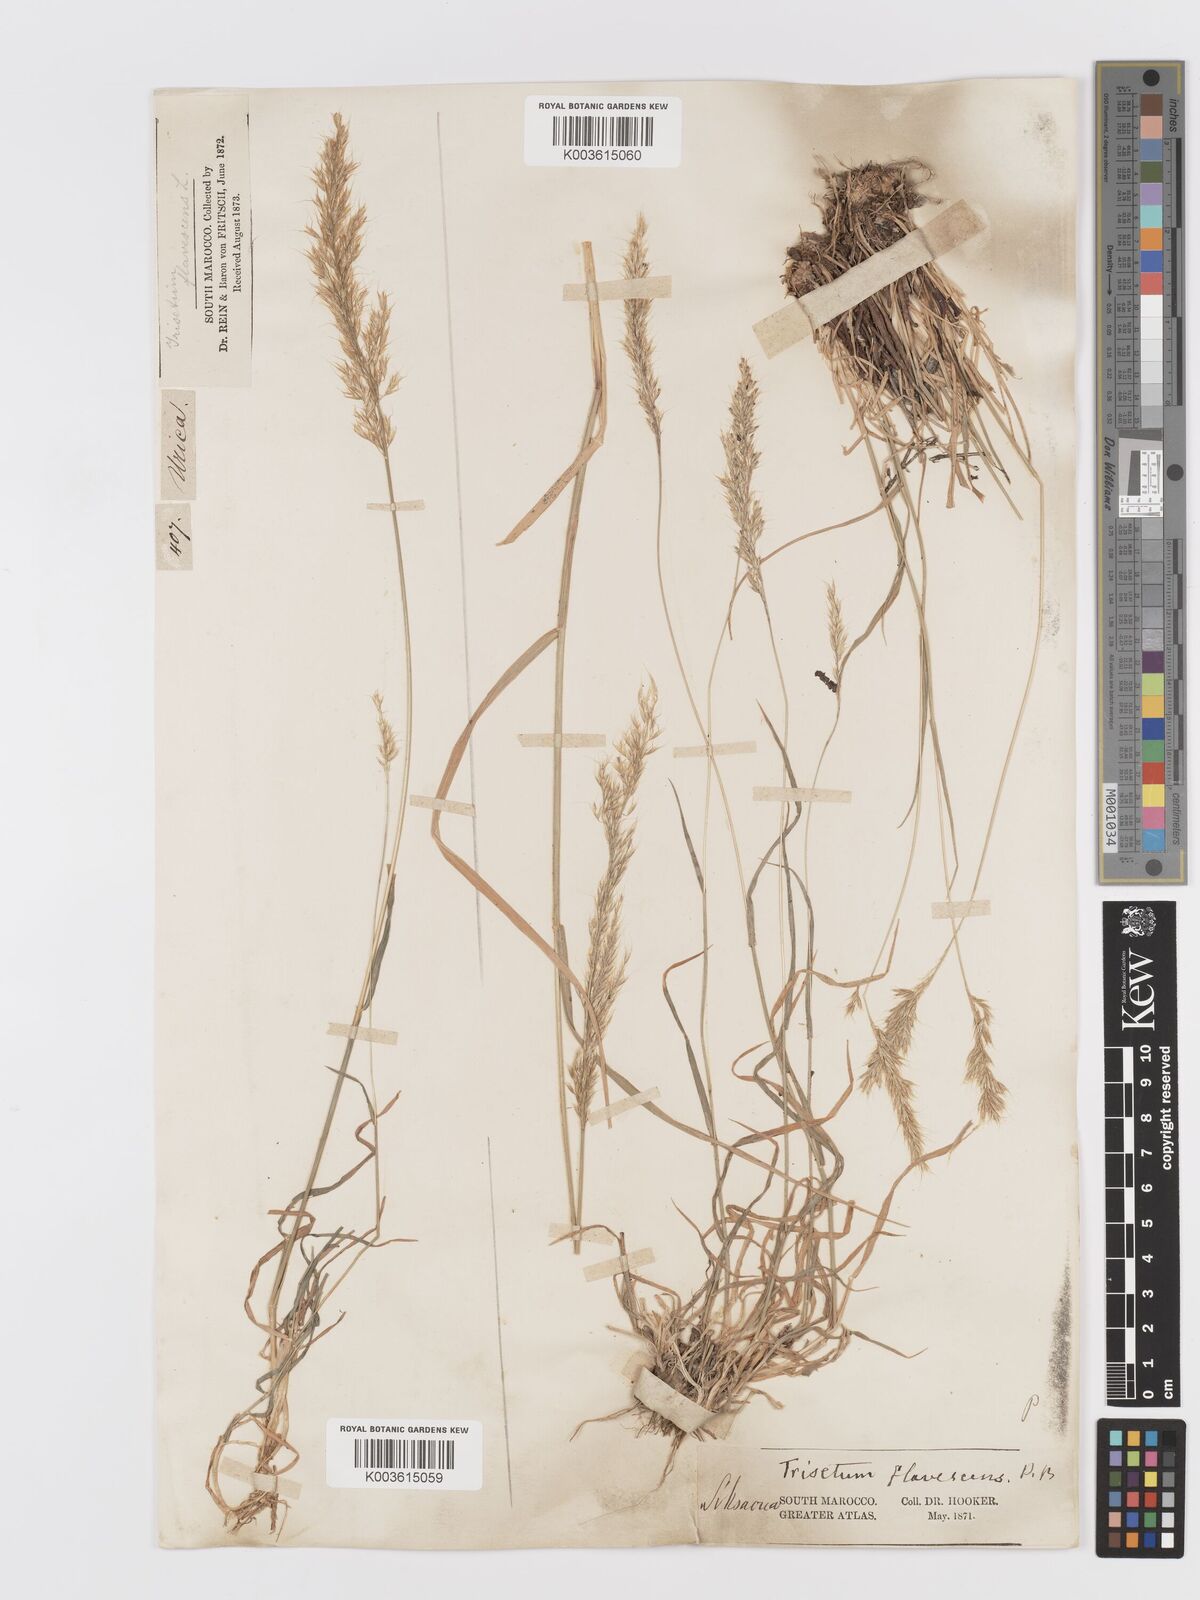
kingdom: Plantae
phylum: Tracheophyta
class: Liliopsida
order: Poales
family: Poaceae
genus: Trisetum
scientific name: Trisetum flavescens
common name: Yellow oat-grass
